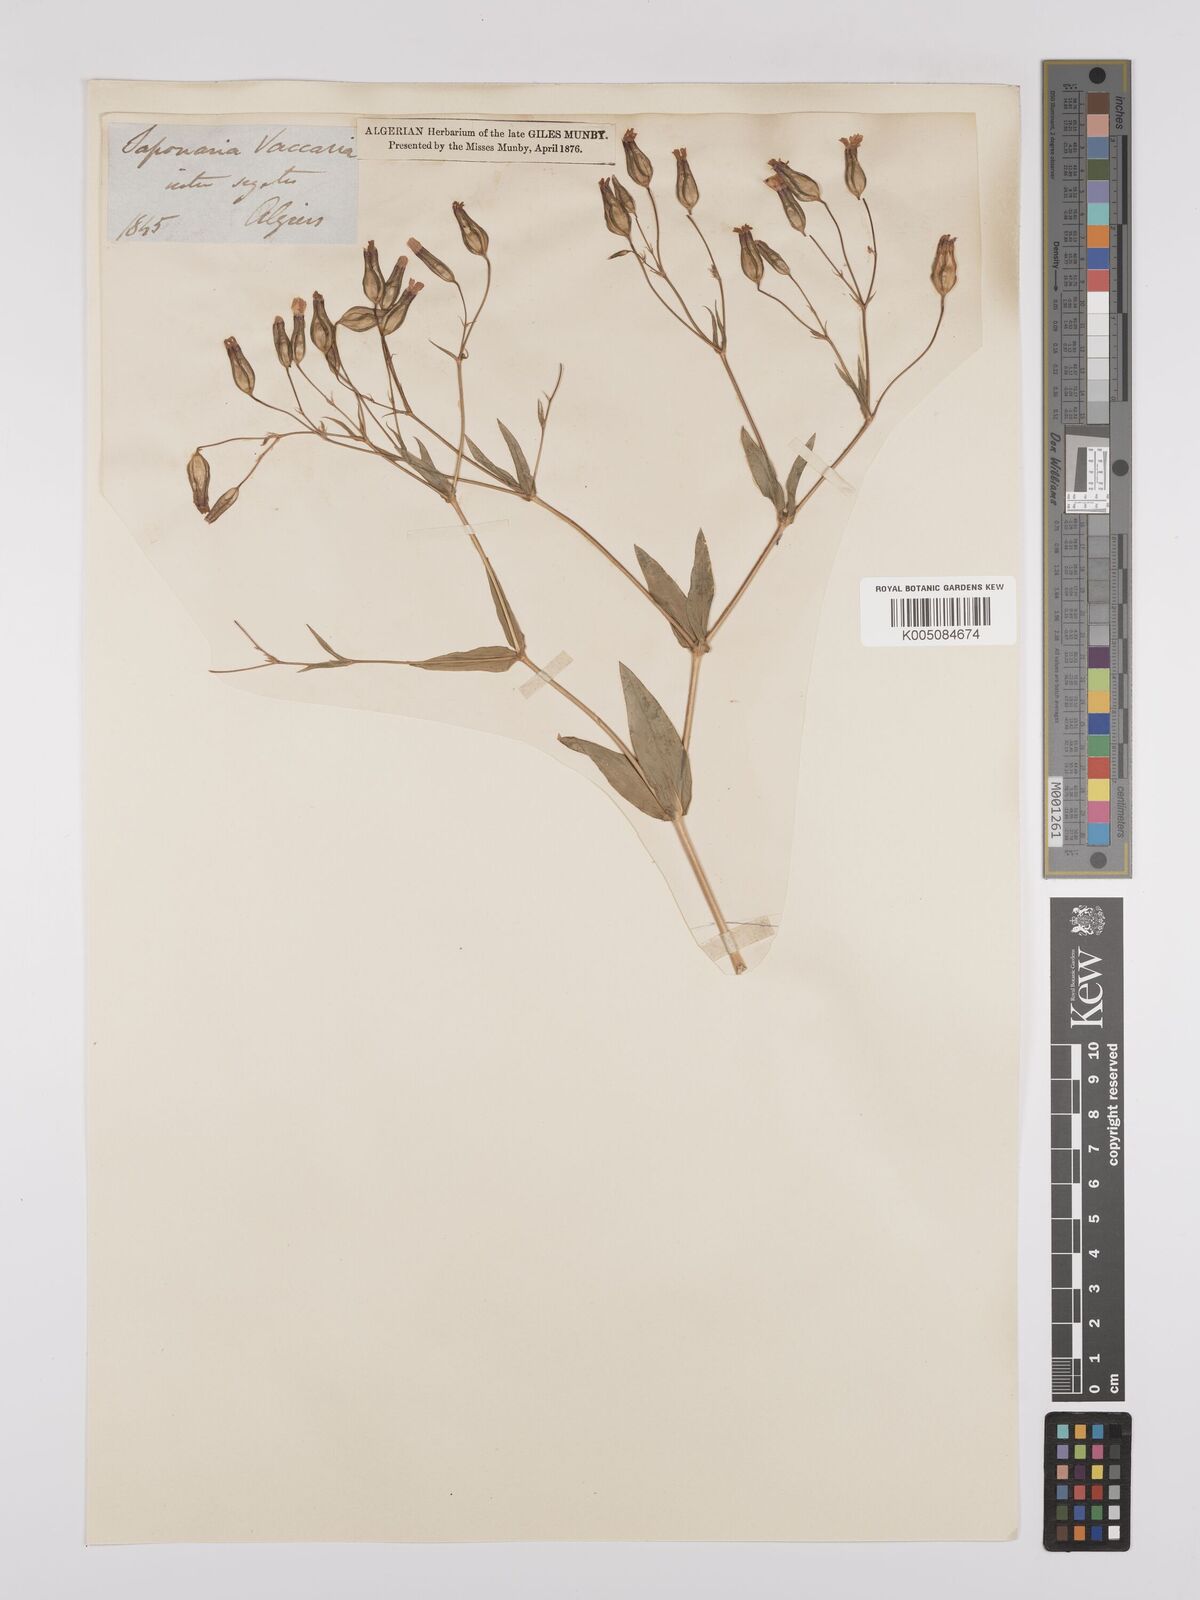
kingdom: Plantae
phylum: Tracheophyta
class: Magnoliopsida
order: Caryophyllales
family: Caryophyllaceae
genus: Gypsophila
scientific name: Gypsophila vaccaria
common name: Cow soapwort
